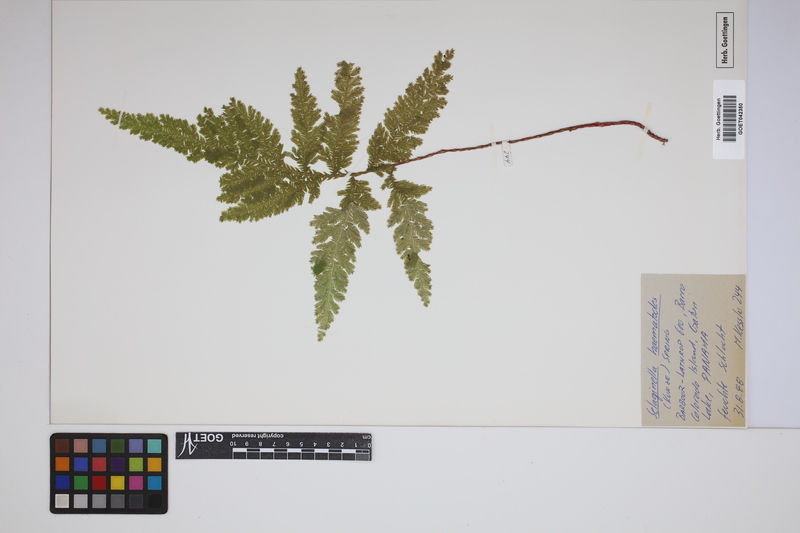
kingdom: Plantae
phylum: Tracheophyta
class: Lycopodiopsida
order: Selaginellales
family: Selaginellaceae
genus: Selaginella
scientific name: Selaginella haematodes
